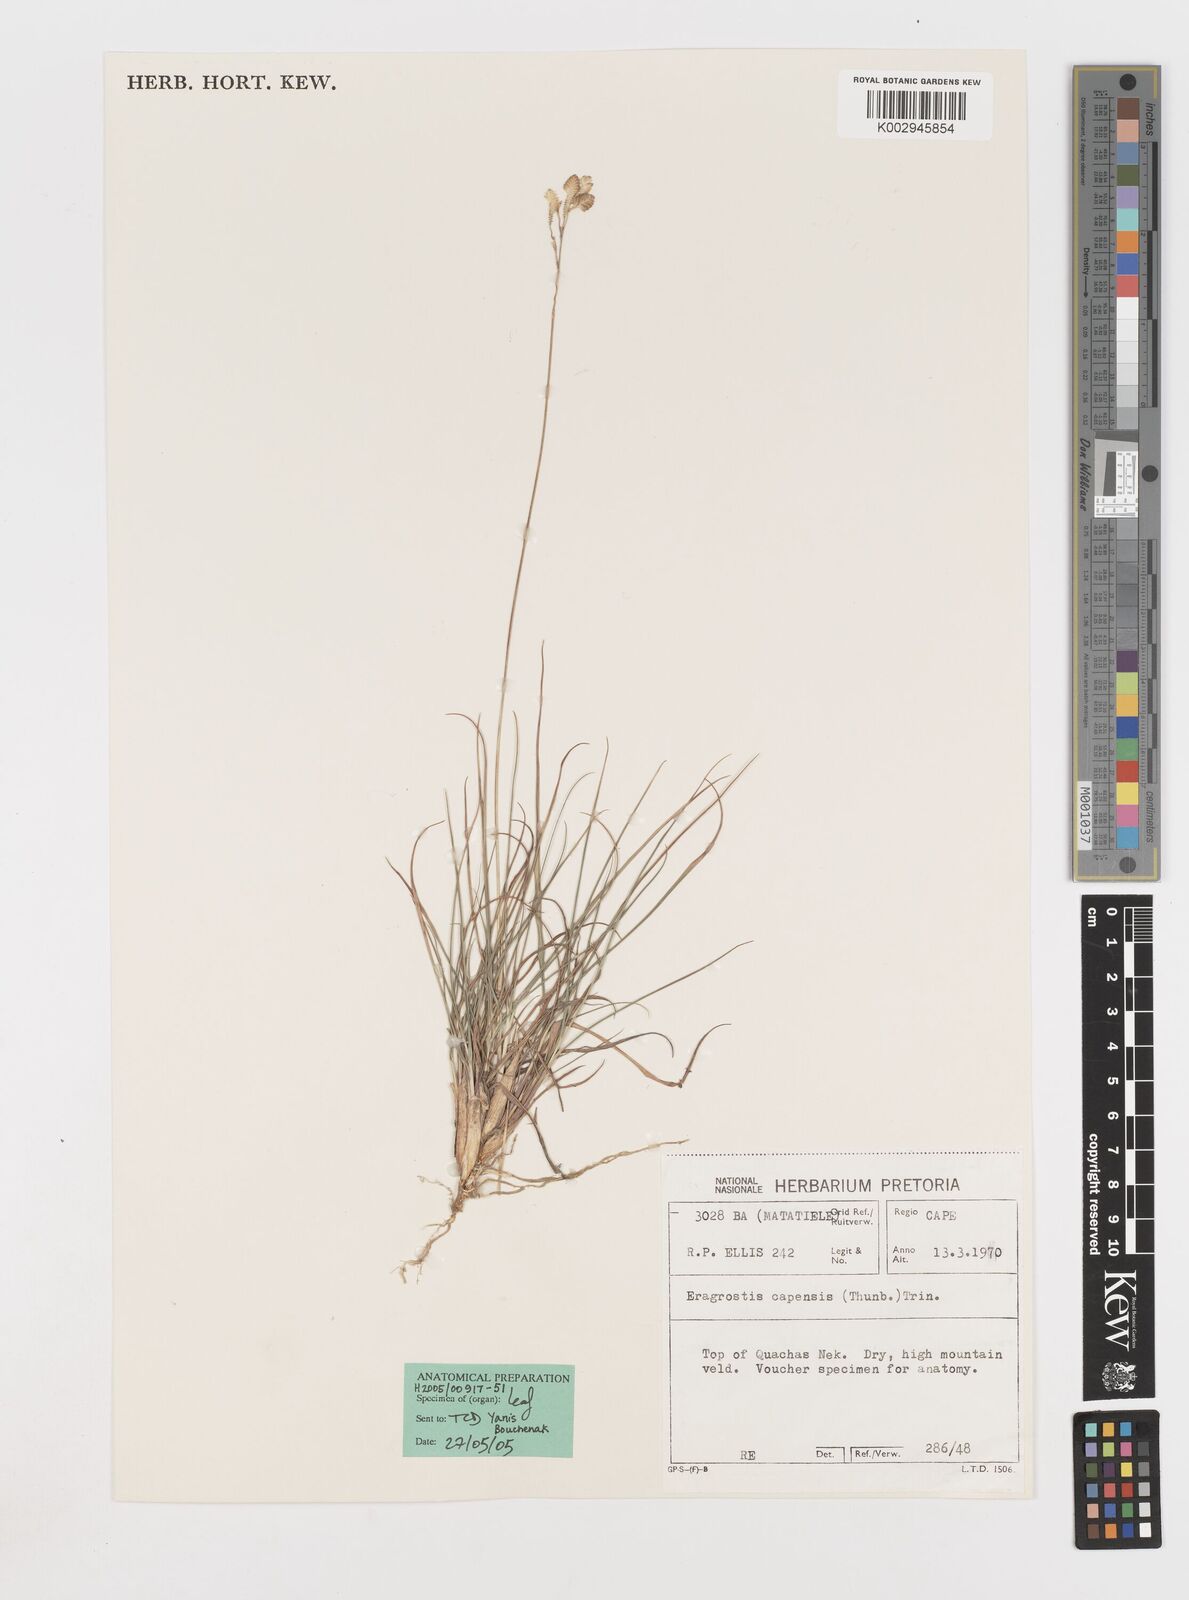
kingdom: Plantae
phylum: Tracheophyta
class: Liliopsida
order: Poales
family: Poaceae
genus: Eragrostis
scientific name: Eragrostis capensis
